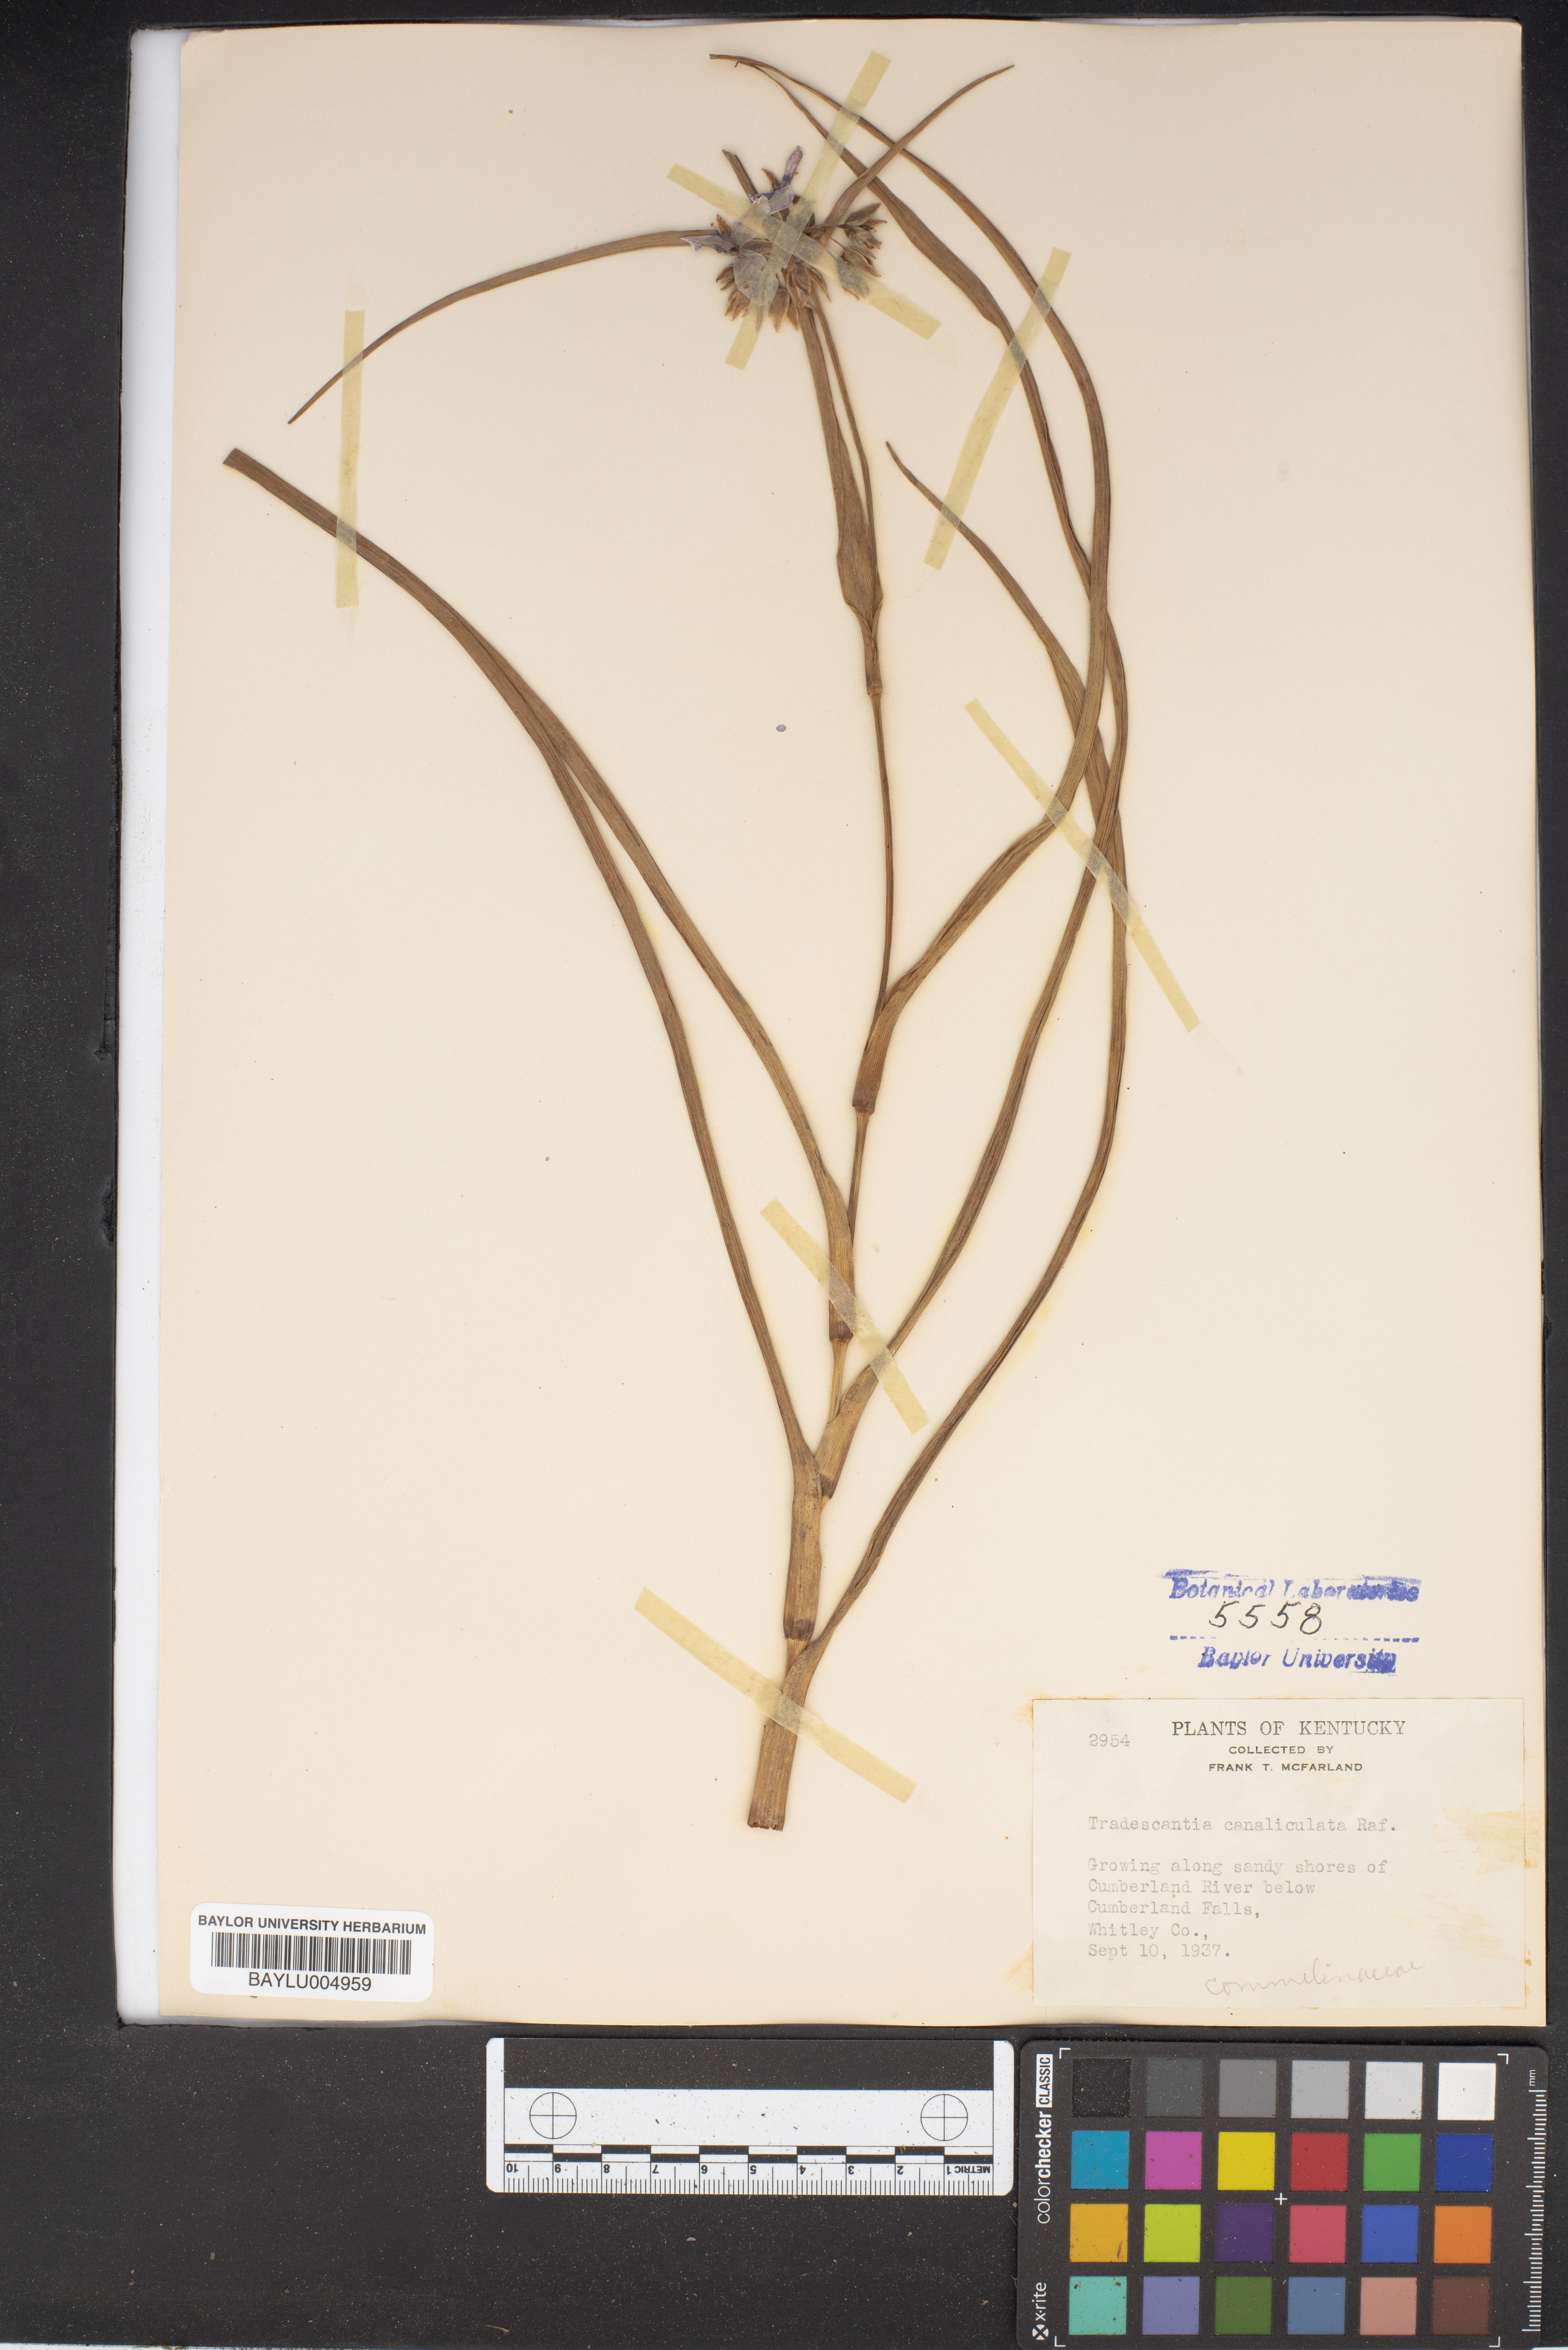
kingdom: Plantae
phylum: Tracheophyta
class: Liliopsida
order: Commelinales
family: Commelinaceae
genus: Tradescantia
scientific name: Tradescantia ohiensis
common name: Ohio spiderwort
